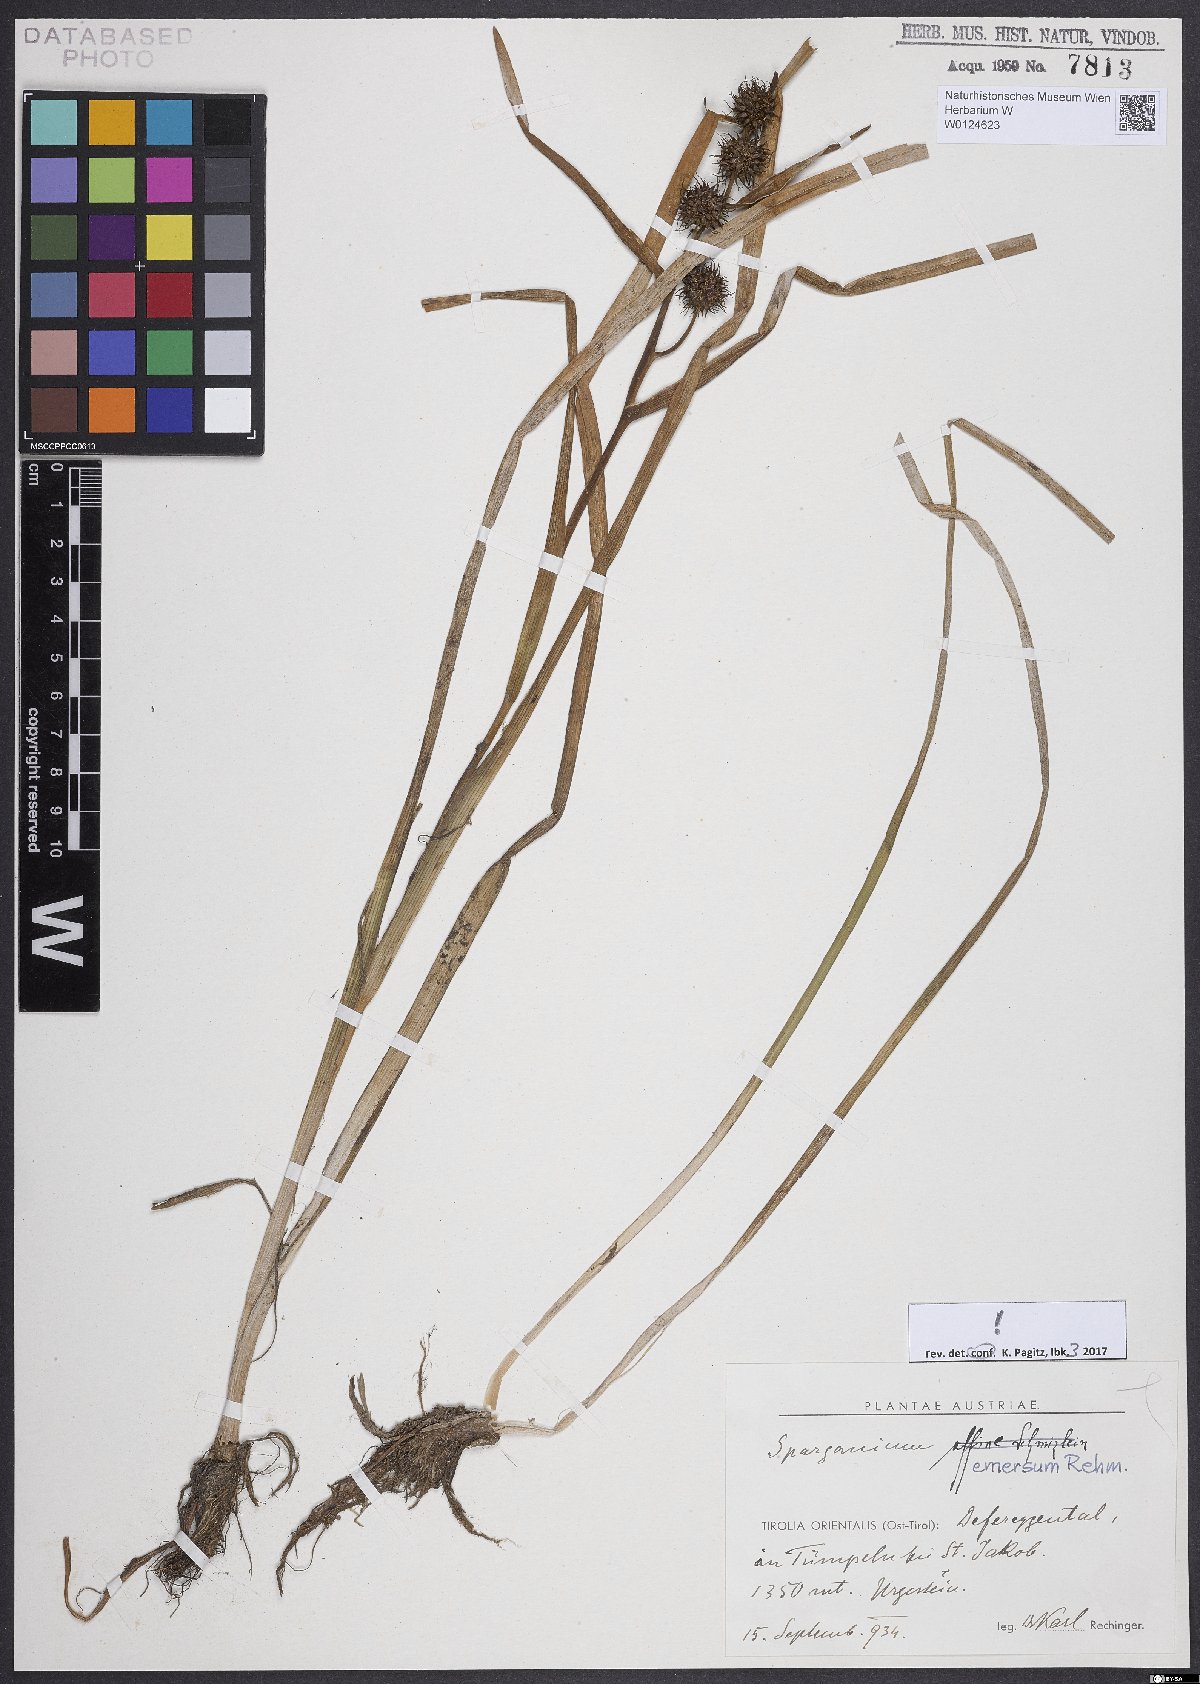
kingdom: Plantae
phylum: Tracheophyta
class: Liliopsida
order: Poales
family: Typhaceae
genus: Sparganium
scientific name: Sparganium emersum
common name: Unbranched bur-reed
